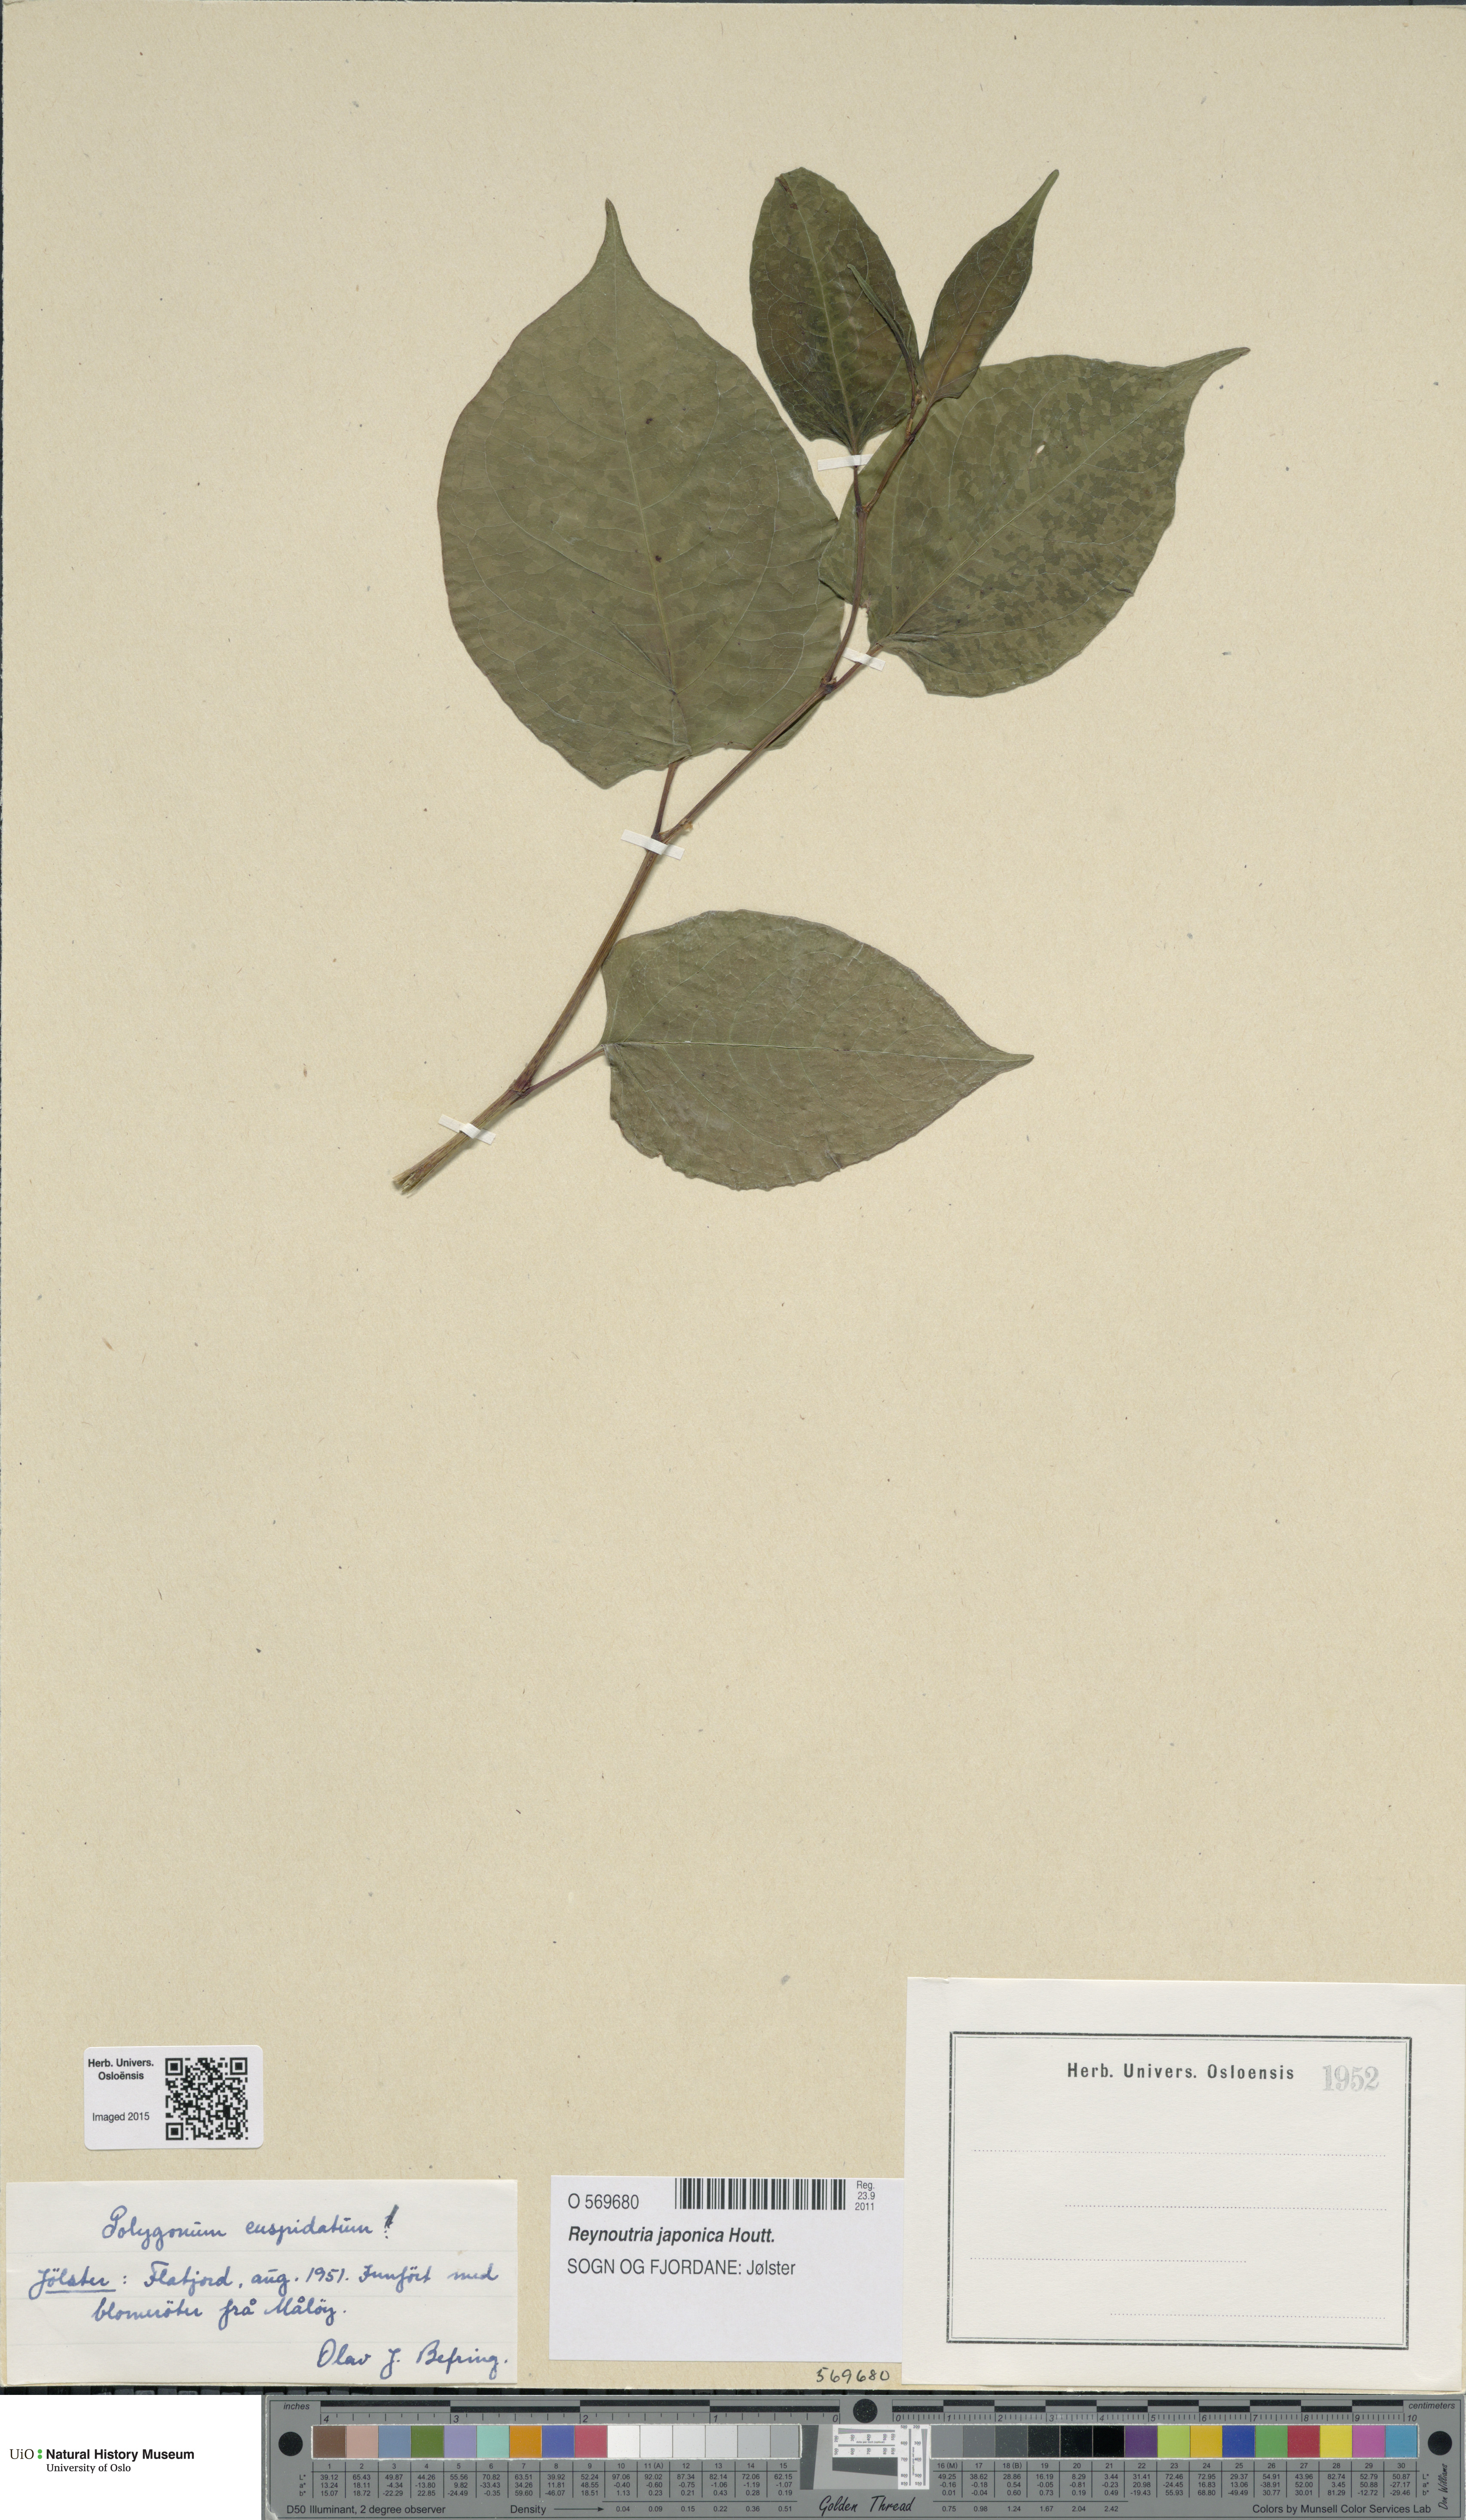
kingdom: Plantae
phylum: Tracheophyta
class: Magnoliopsida
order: Caryophyllales
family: Polygonaceae
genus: Reynoutria
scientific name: Reynoutria japonica
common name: Japanese knotweed
